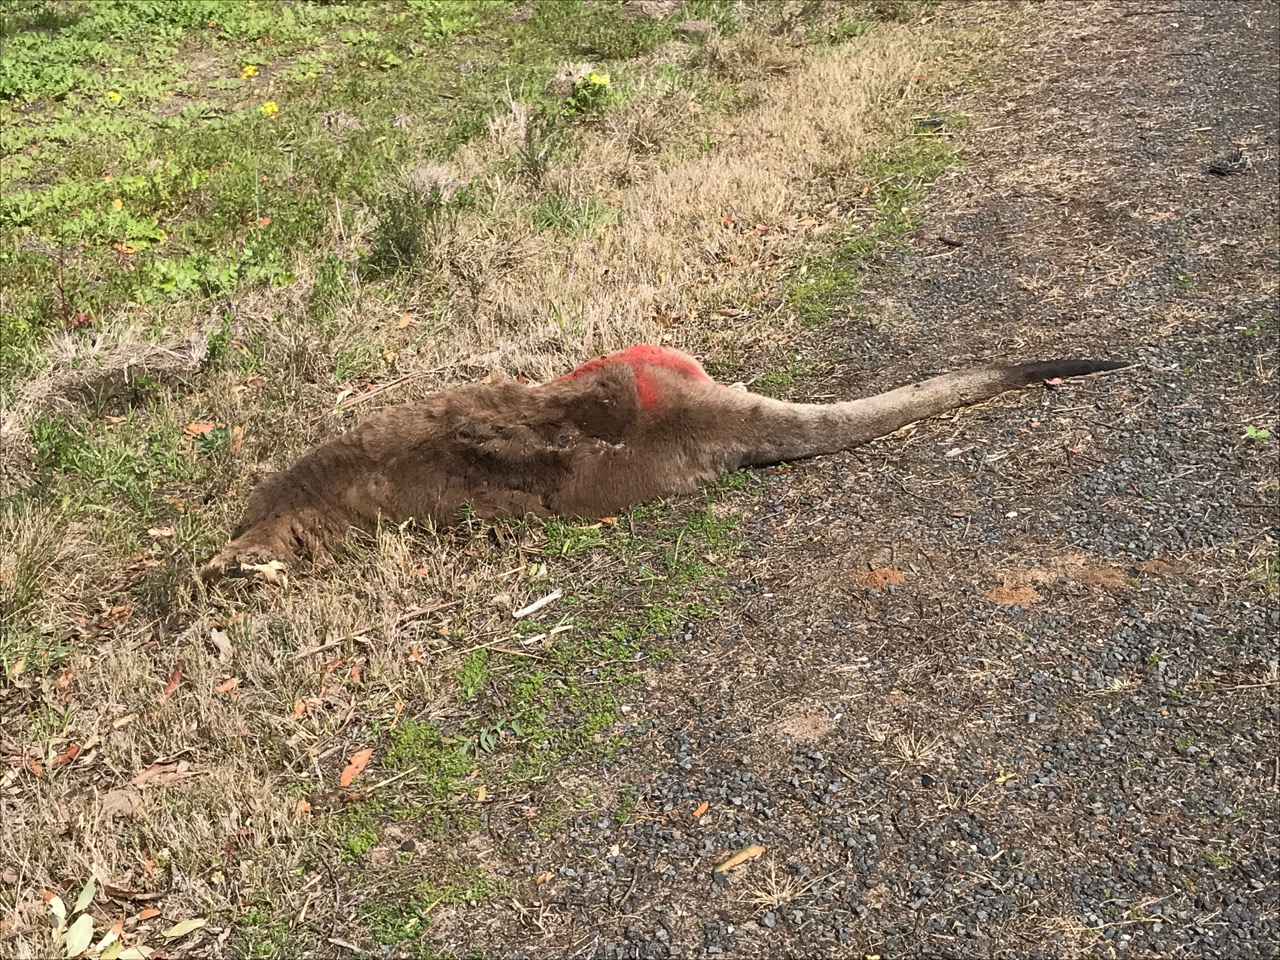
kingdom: Animalia
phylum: Chordata
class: Mammalia
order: Diprotodontia
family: Macropodidae
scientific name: Macropodidae
